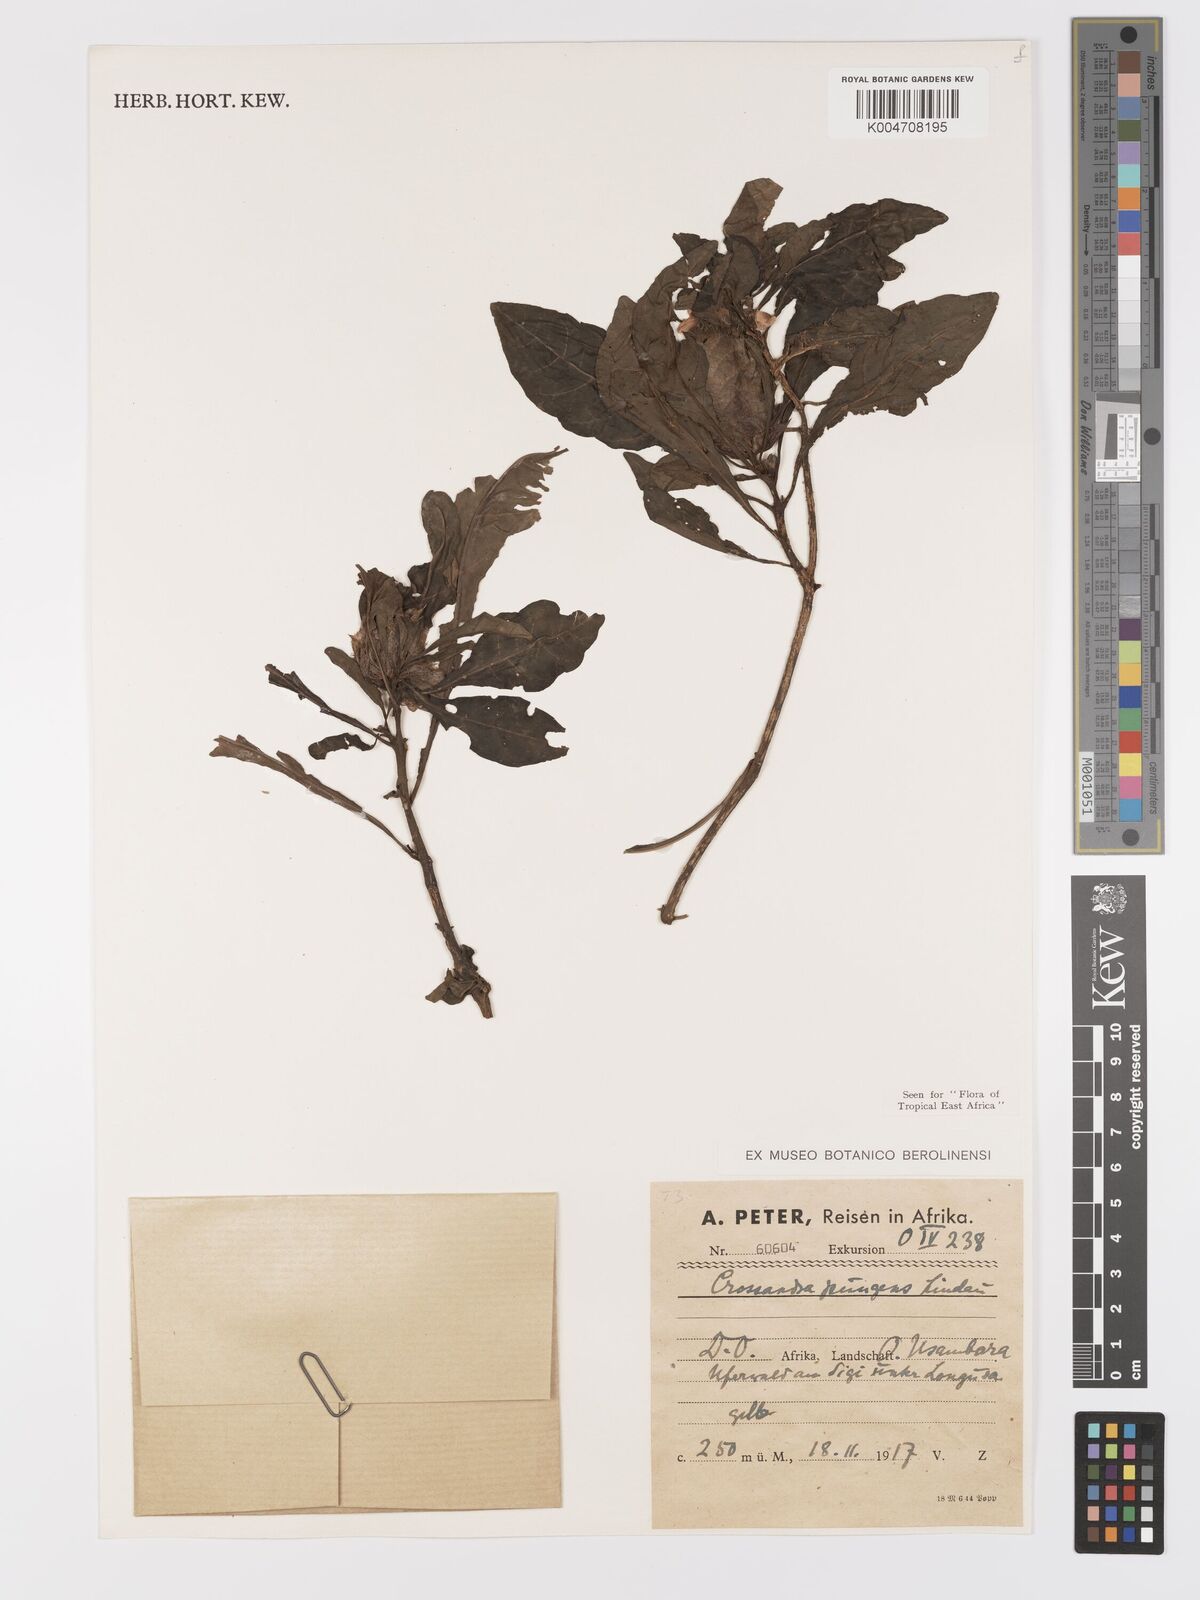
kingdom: Plantae
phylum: Tracheophyta
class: Magnoliopsida
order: Lamiales
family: Acanthaceae
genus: Crossandra
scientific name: Crossandra pungens
